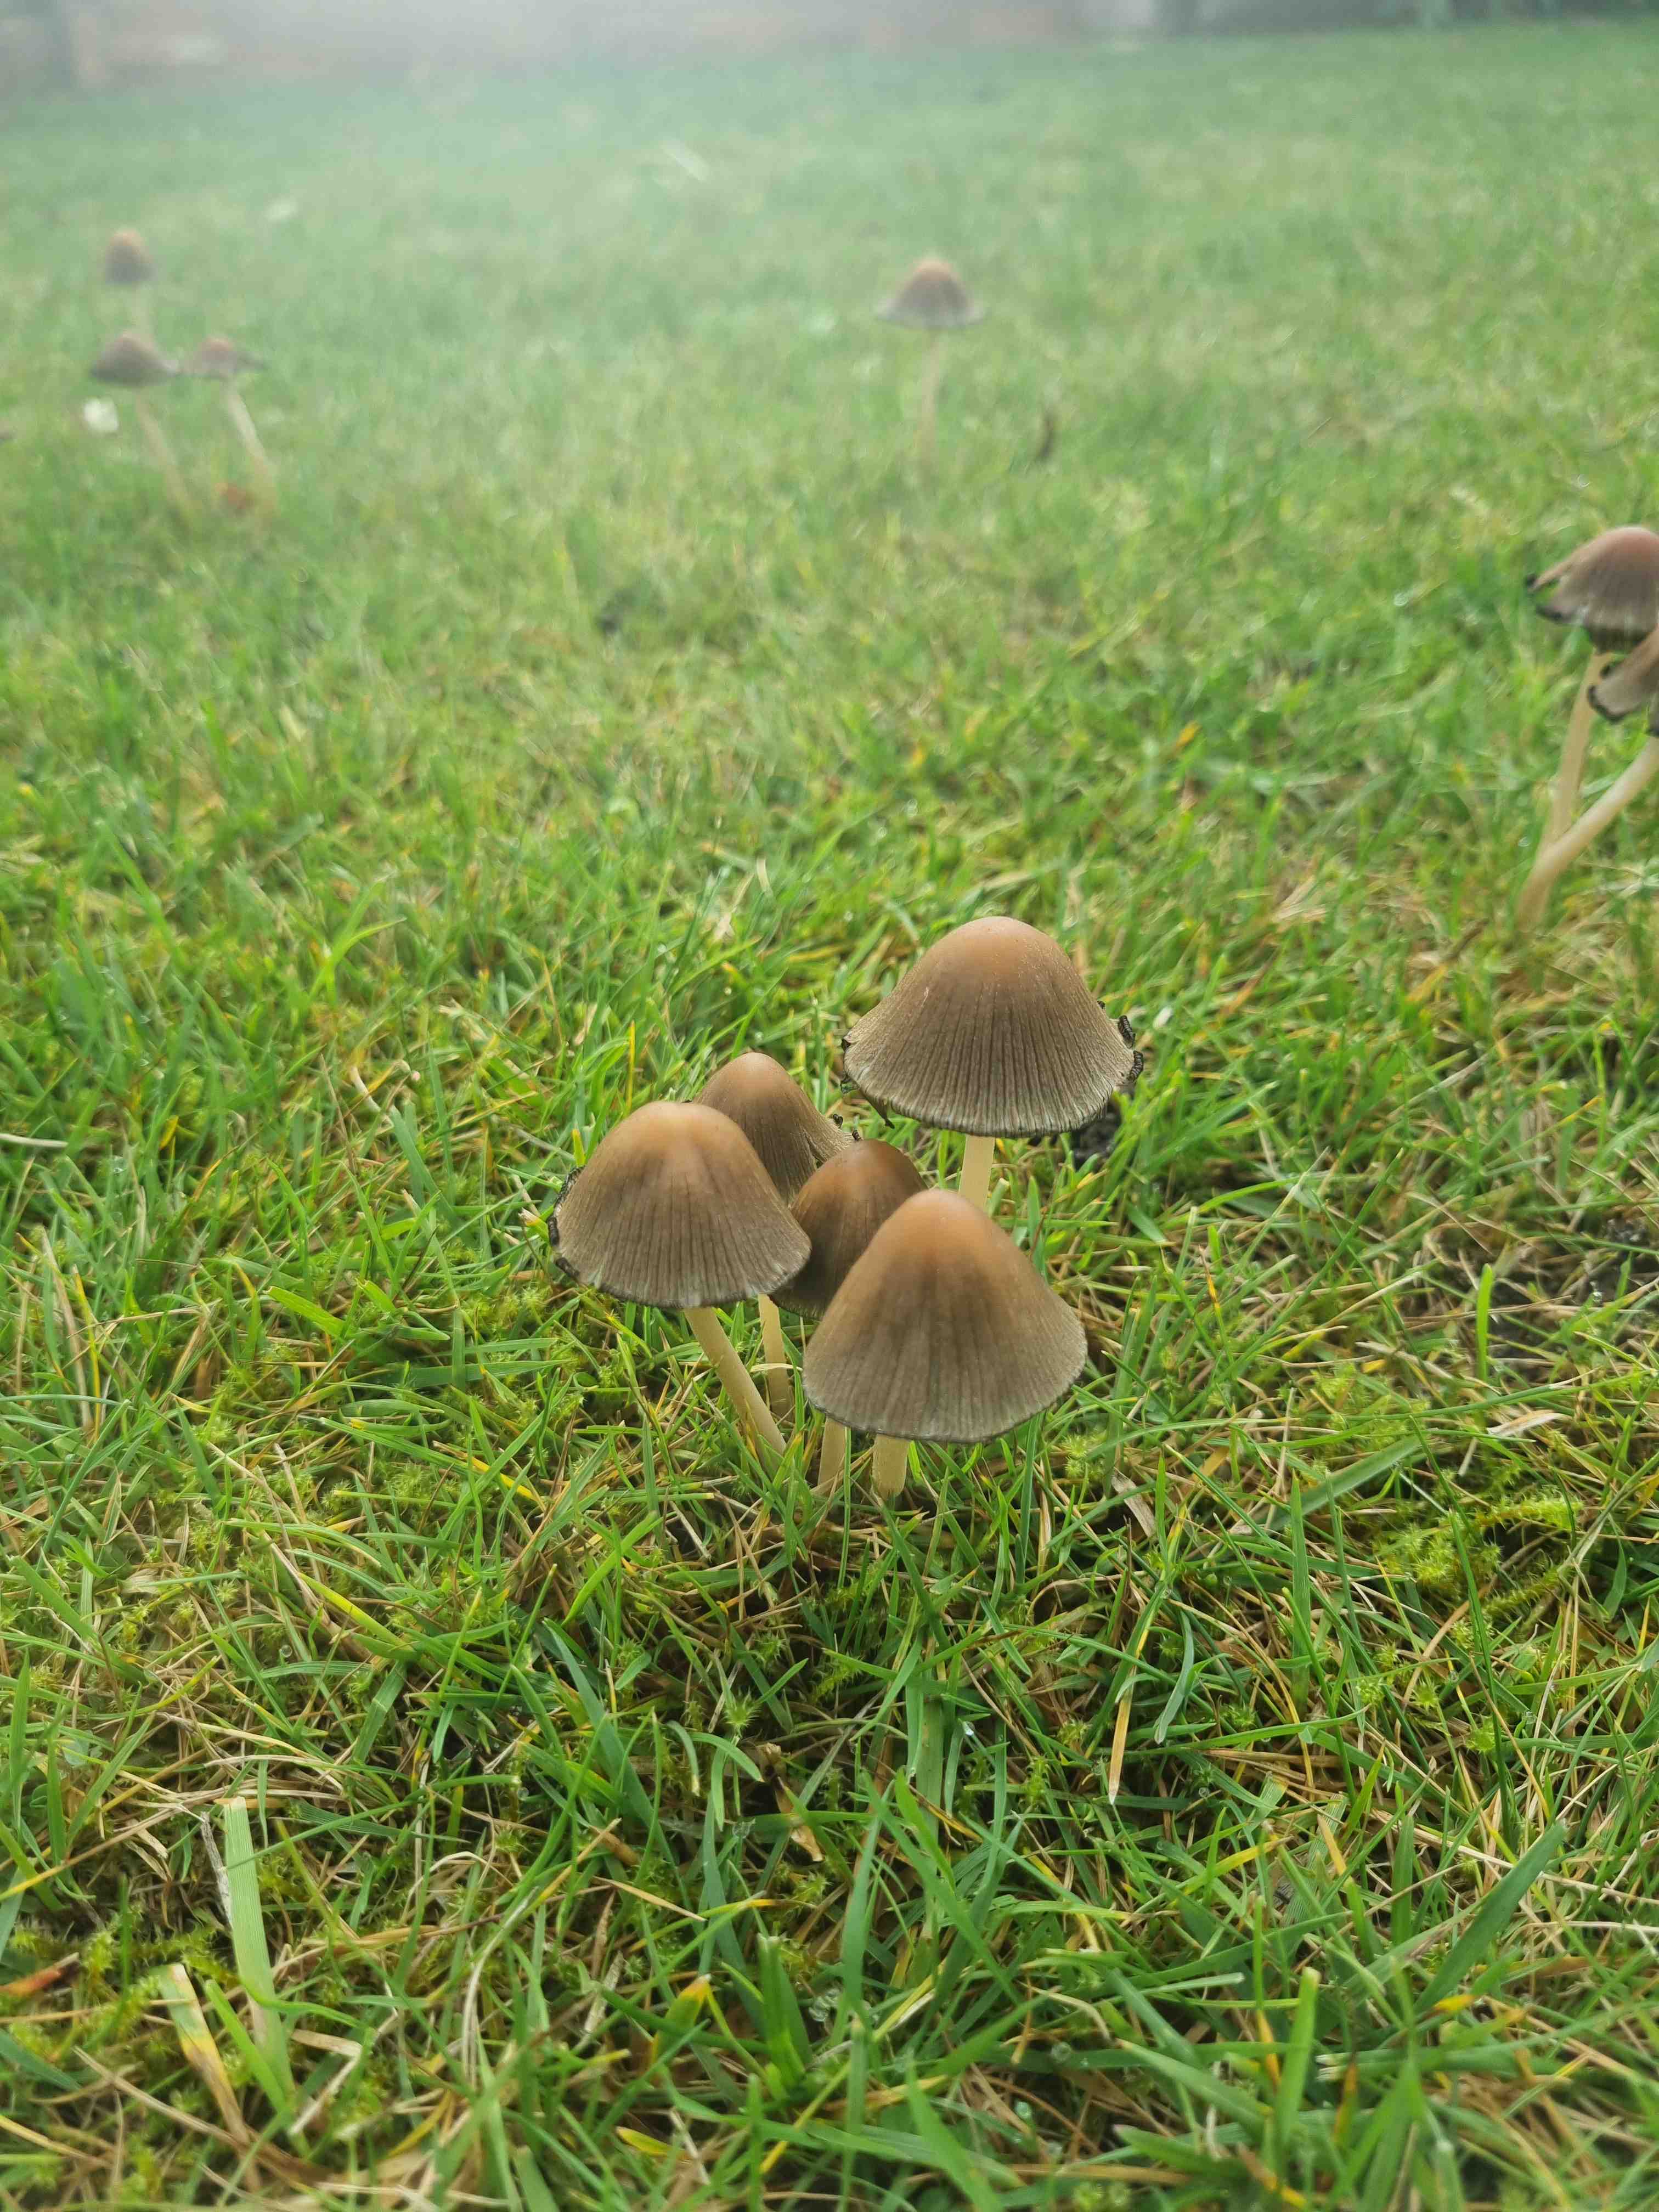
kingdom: Fungi
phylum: Basidiomycota
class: Agaricomycetes
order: Agaricales
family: Psathyrellaceae
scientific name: Psathyrellaceae
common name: mørkhatfamilien
